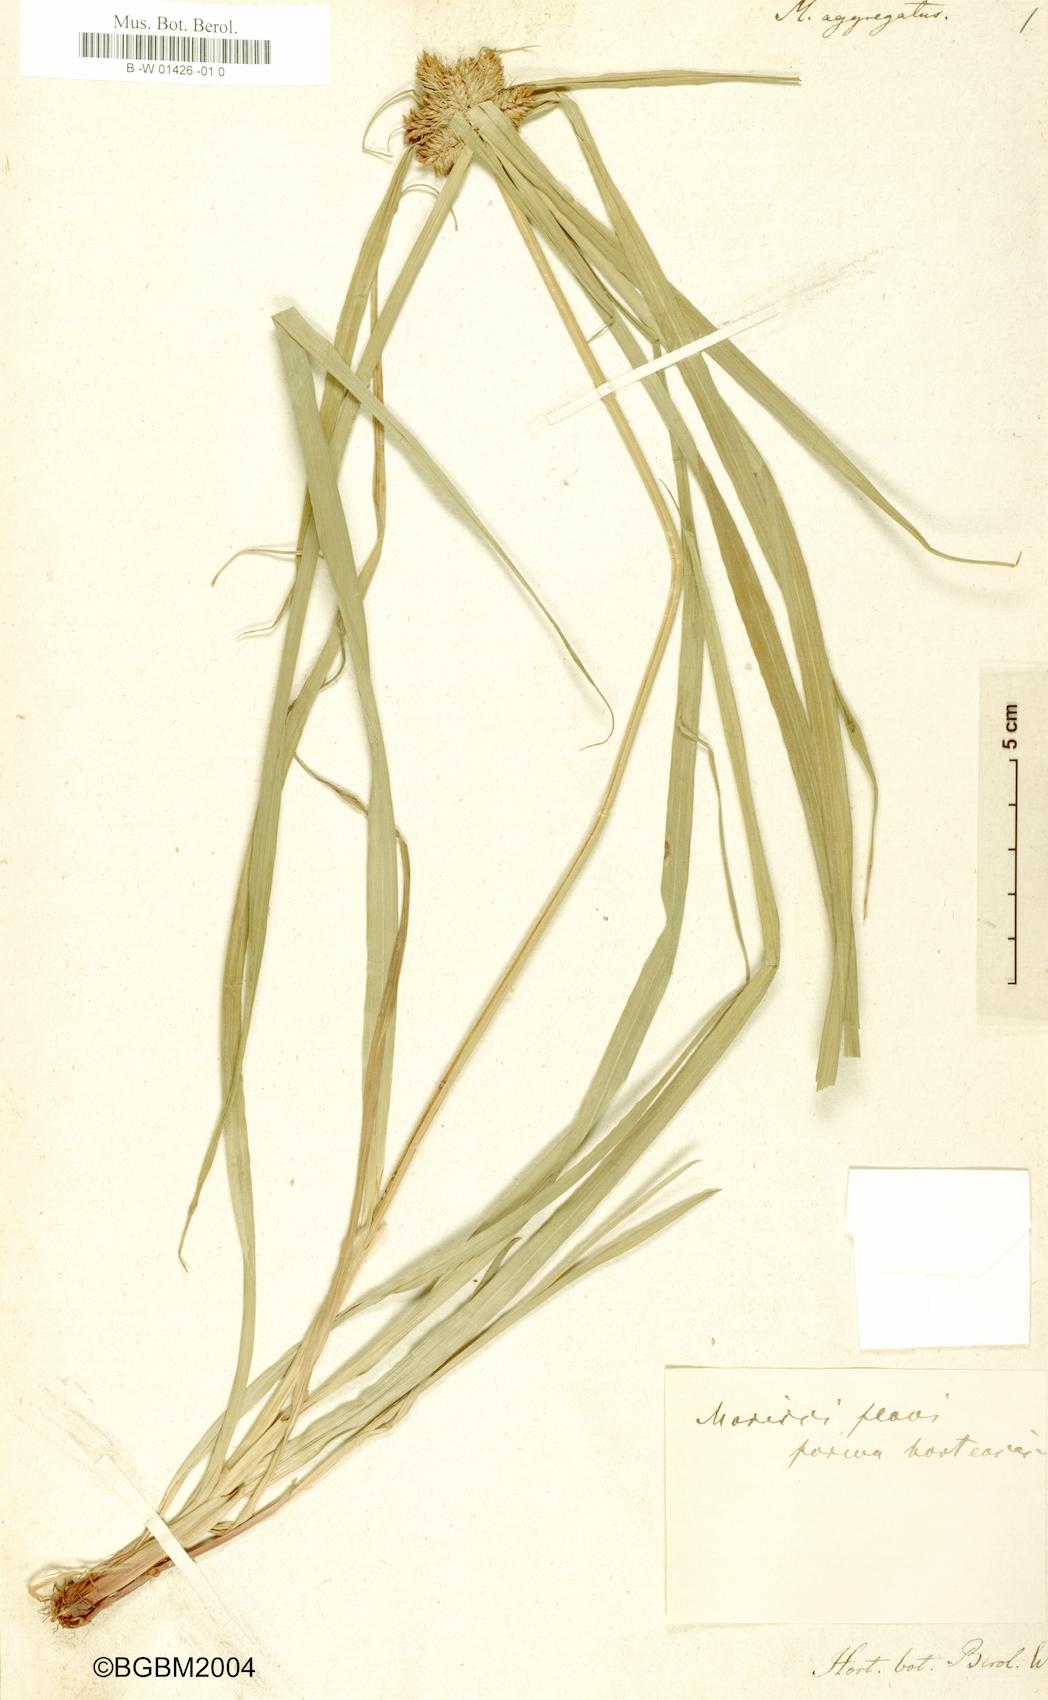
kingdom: Plantae
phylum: Tracheophyta
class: Liliopsida
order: Poales
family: Cyperaceae
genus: Cyperus
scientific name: Cyperus aggregatus
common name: Inflatedscale flatsedge
